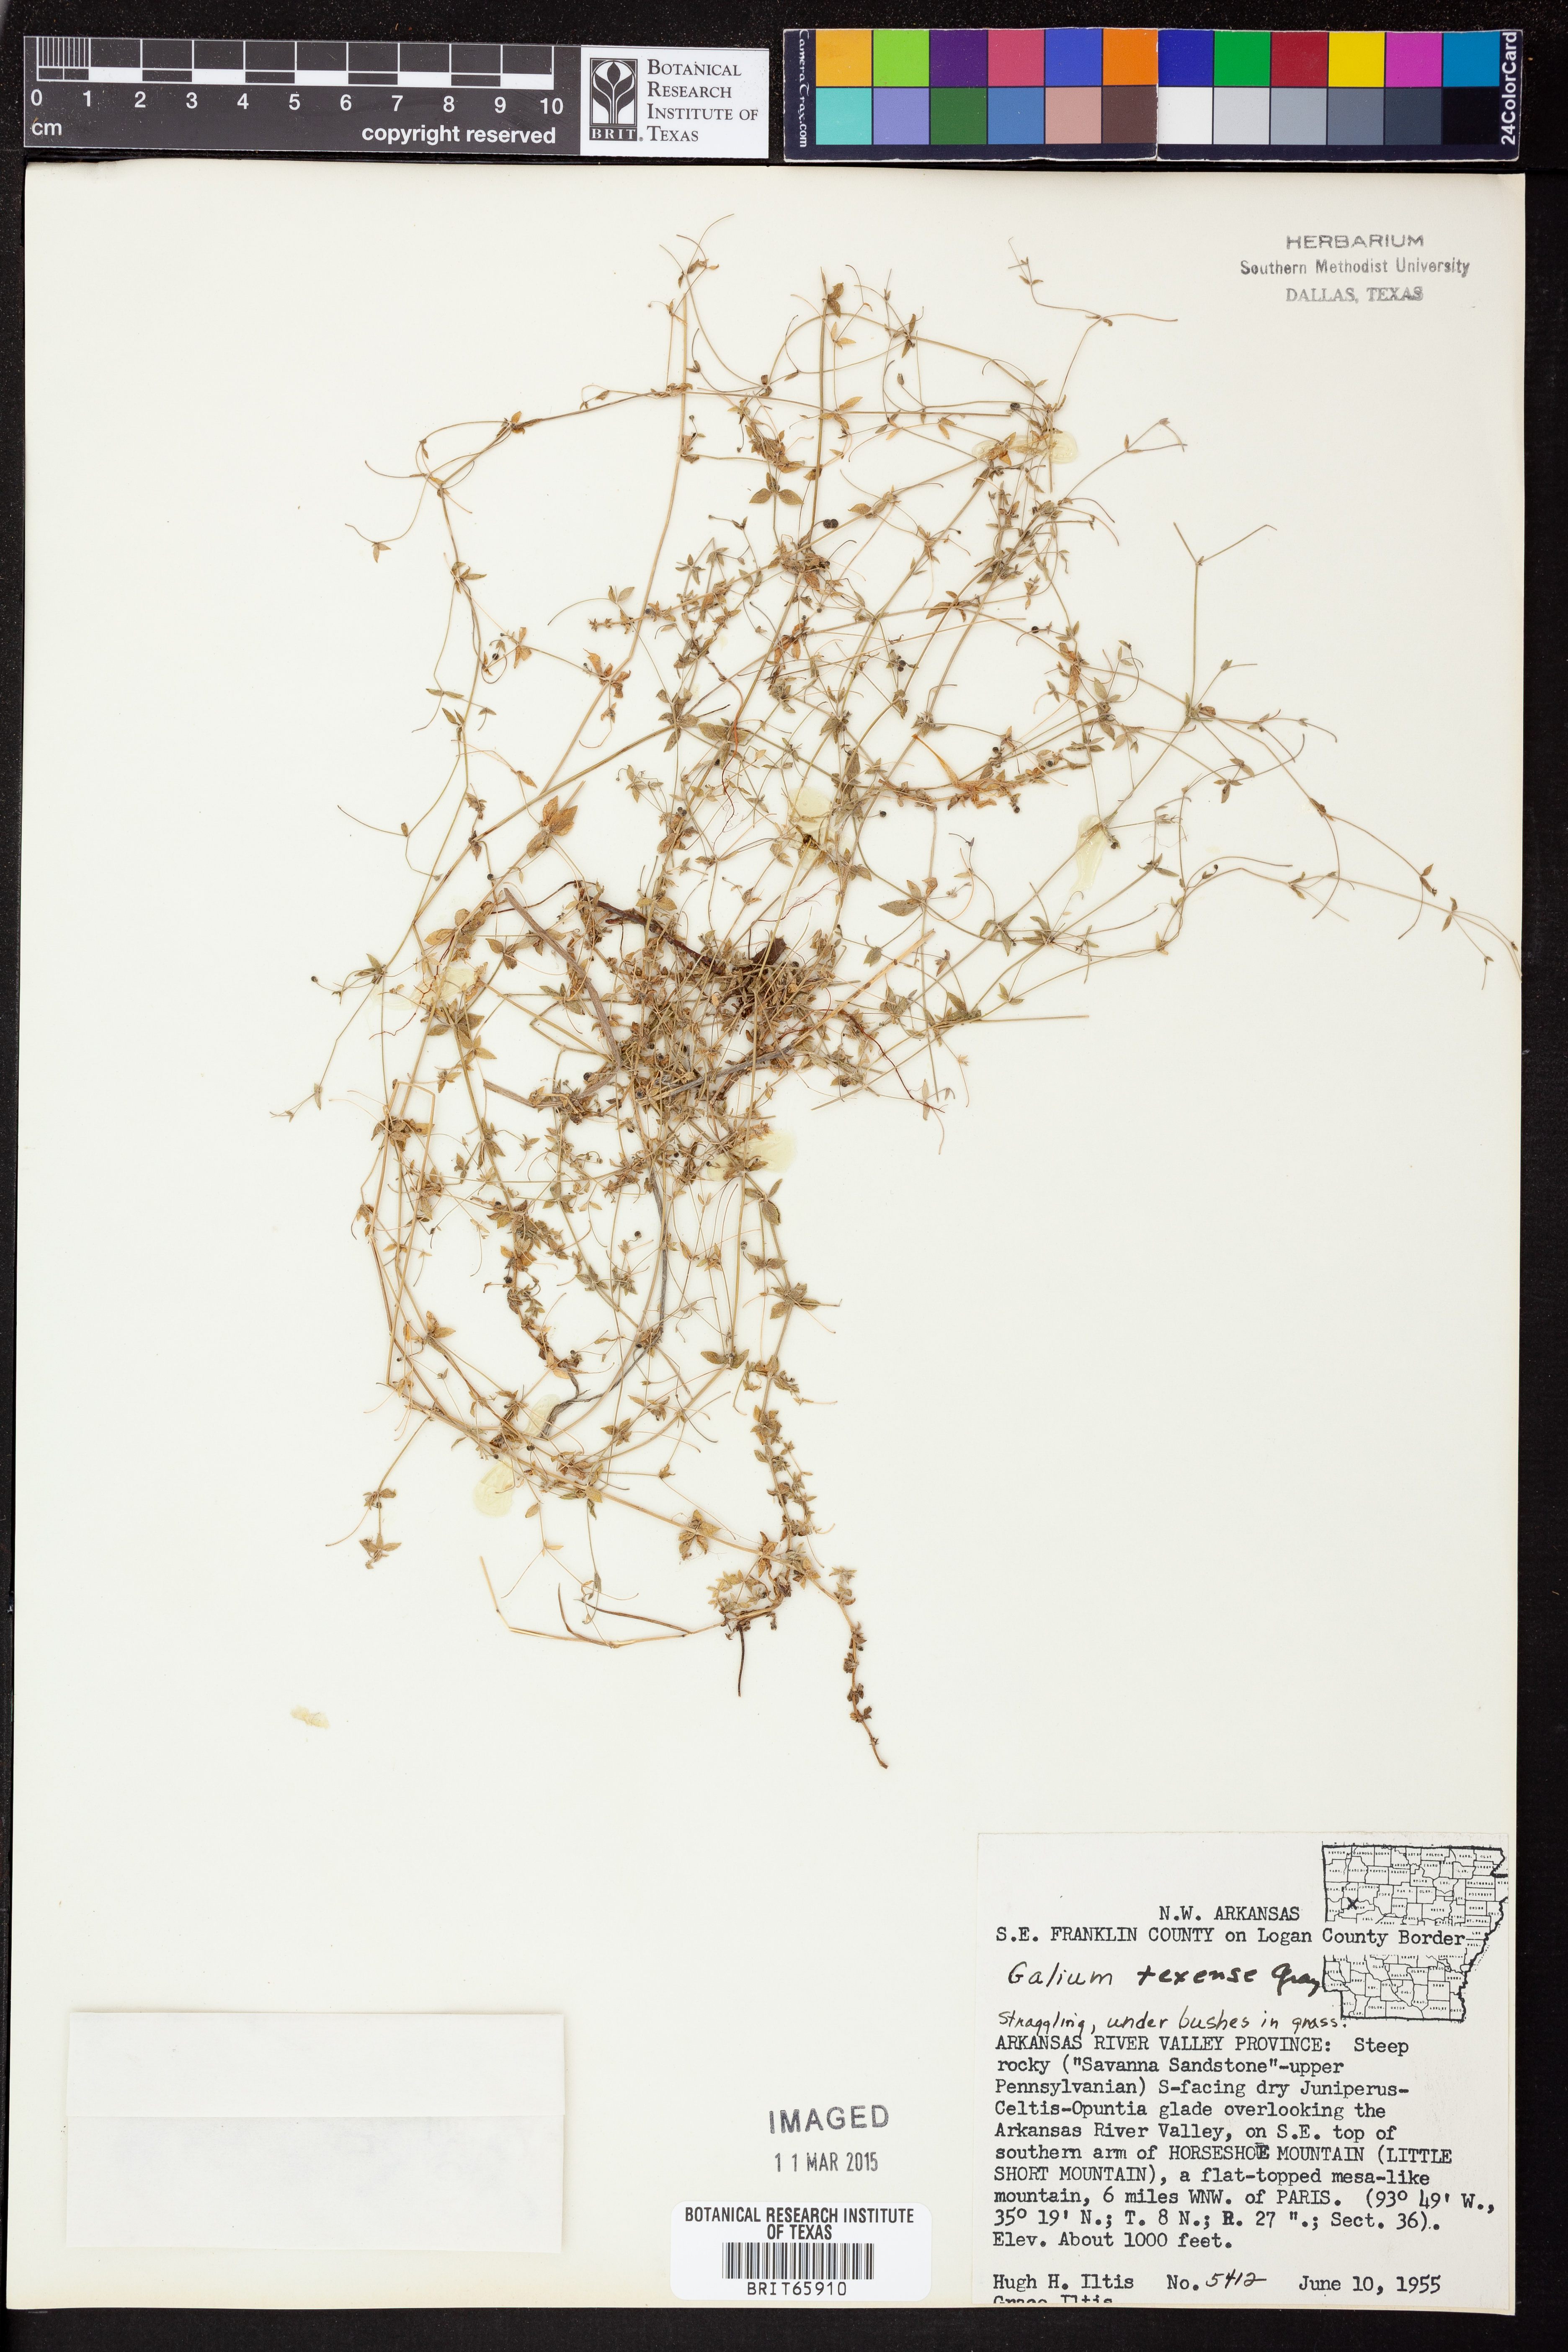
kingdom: Plantae
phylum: Tracheophyta
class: Magnoliopsida
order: Gentianales
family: Rubiaceae
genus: Galium
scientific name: Galium texense
